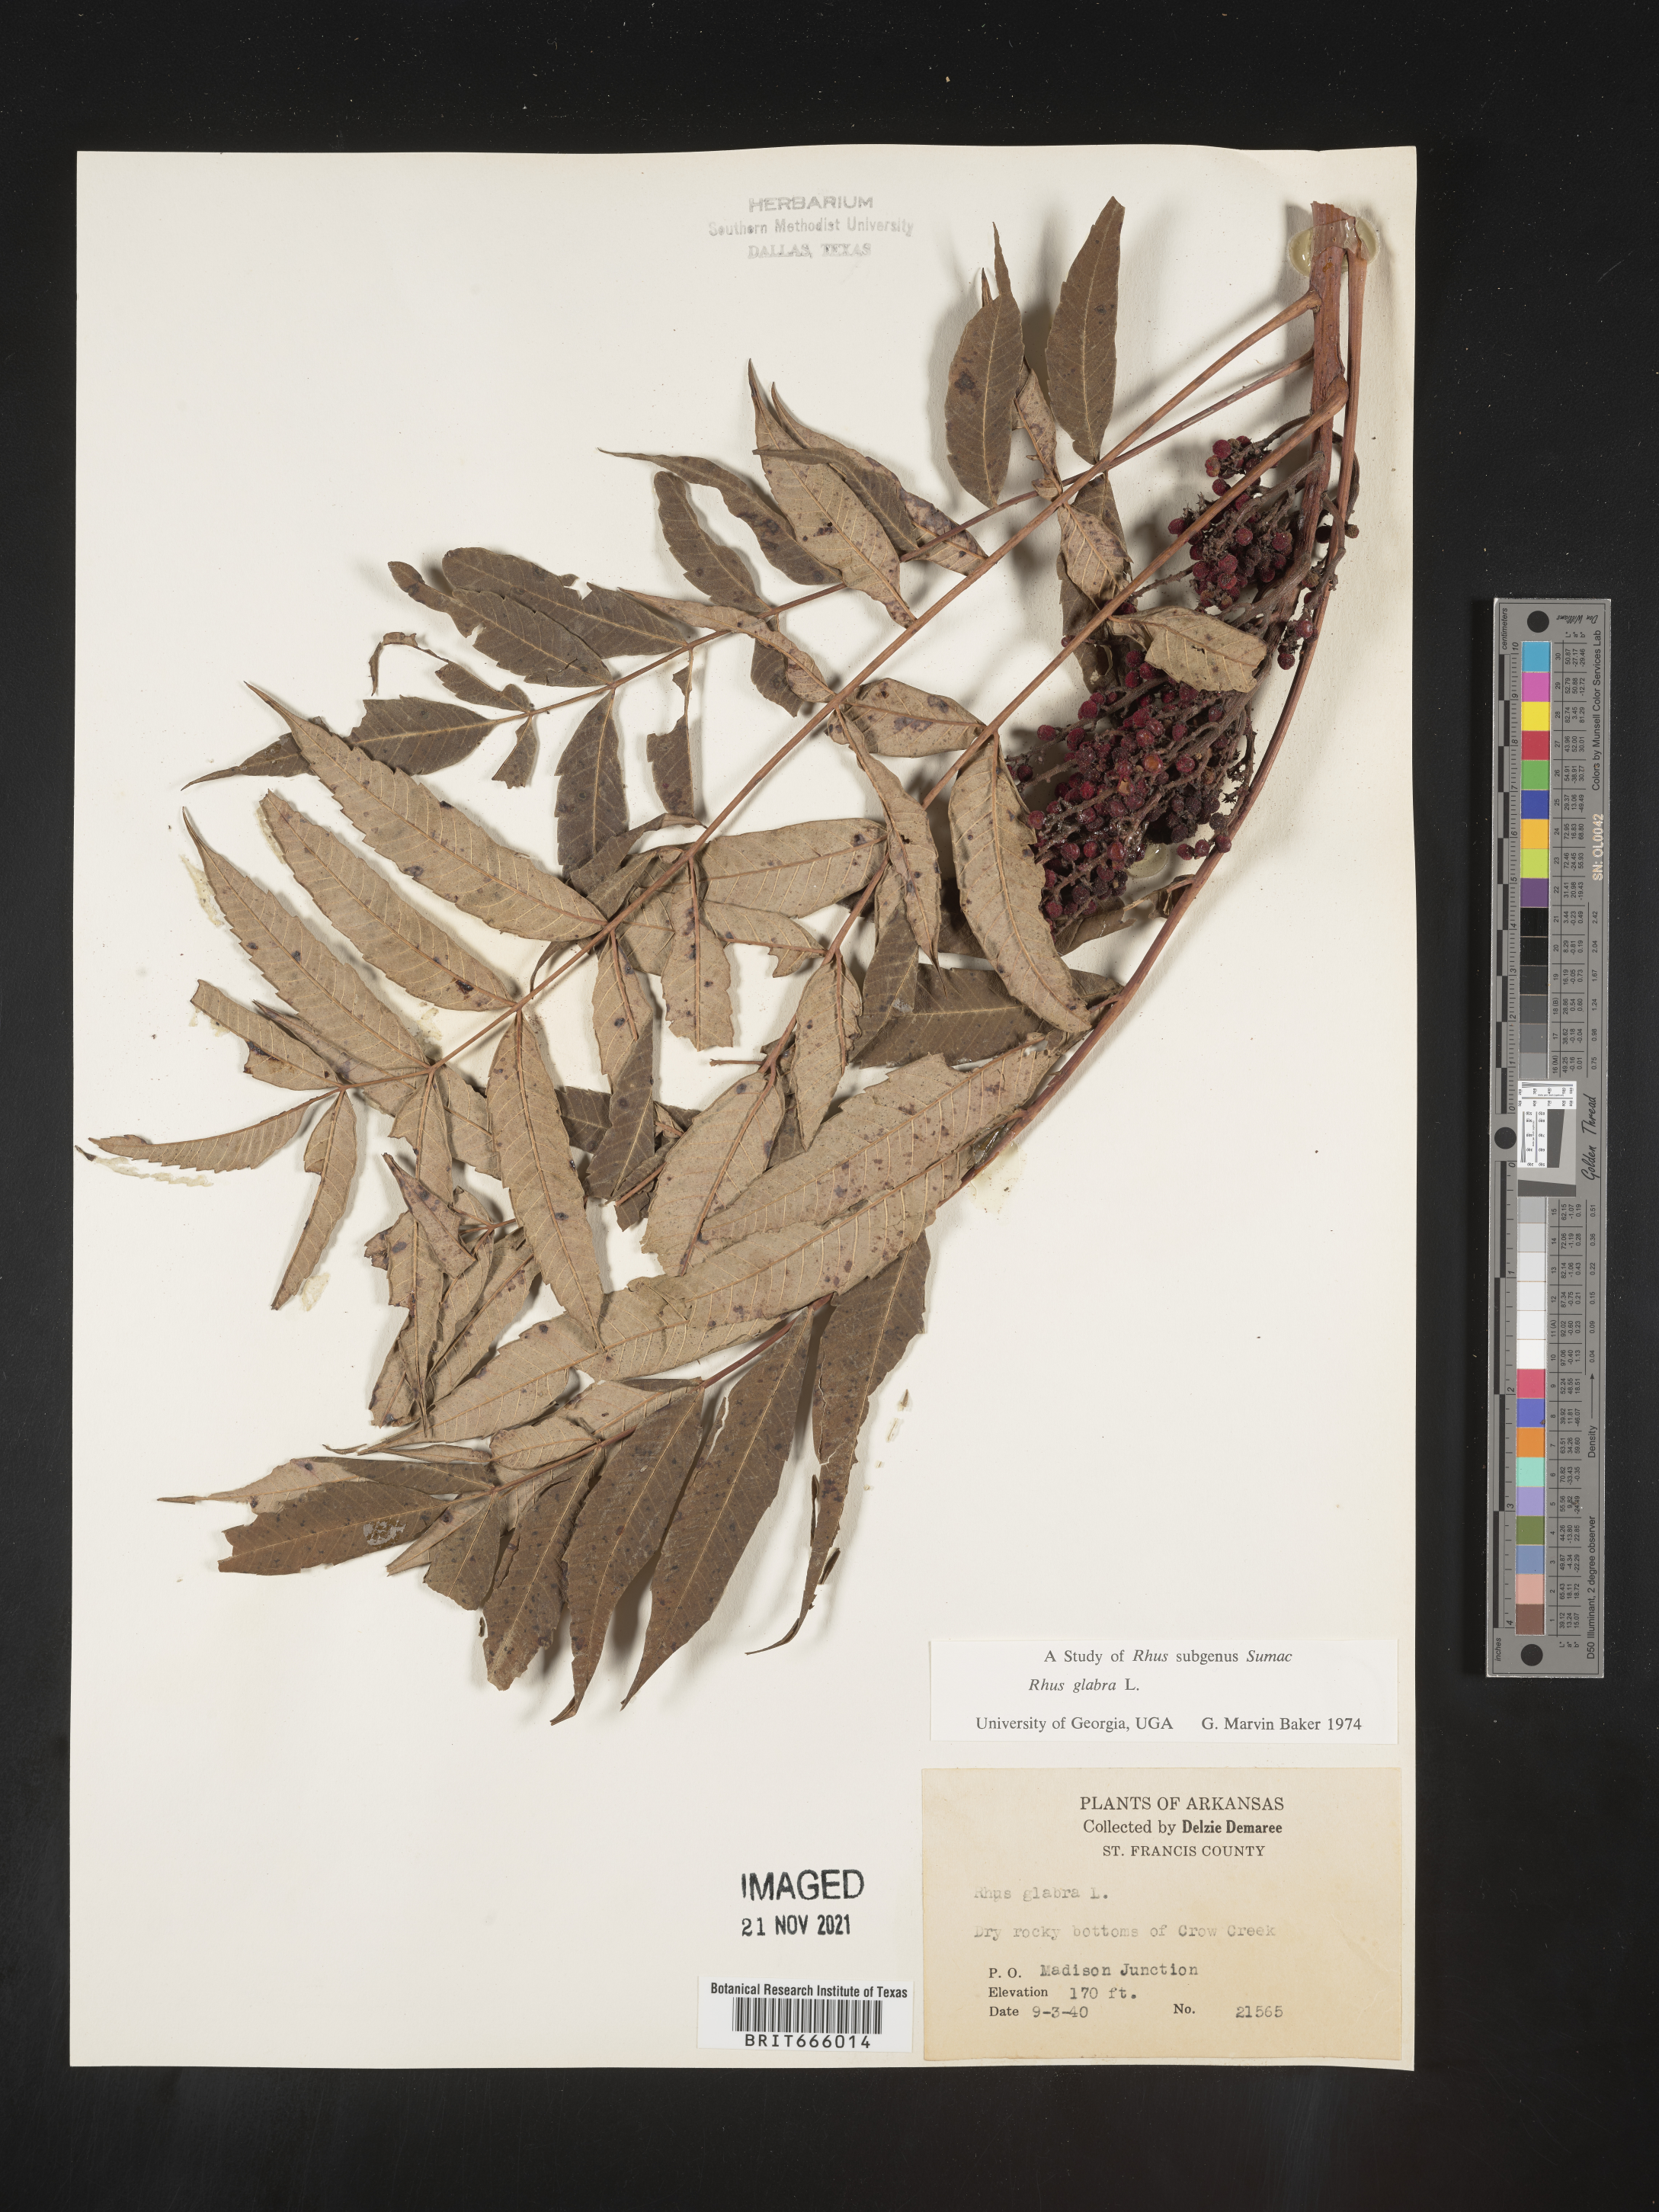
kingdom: Plantae
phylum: Tracheophyta
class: Magnoliopsida
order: Sapindales
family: Anacardiaceae
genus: Rhus
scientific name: Rhus glabra
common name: Scarlet sumac
